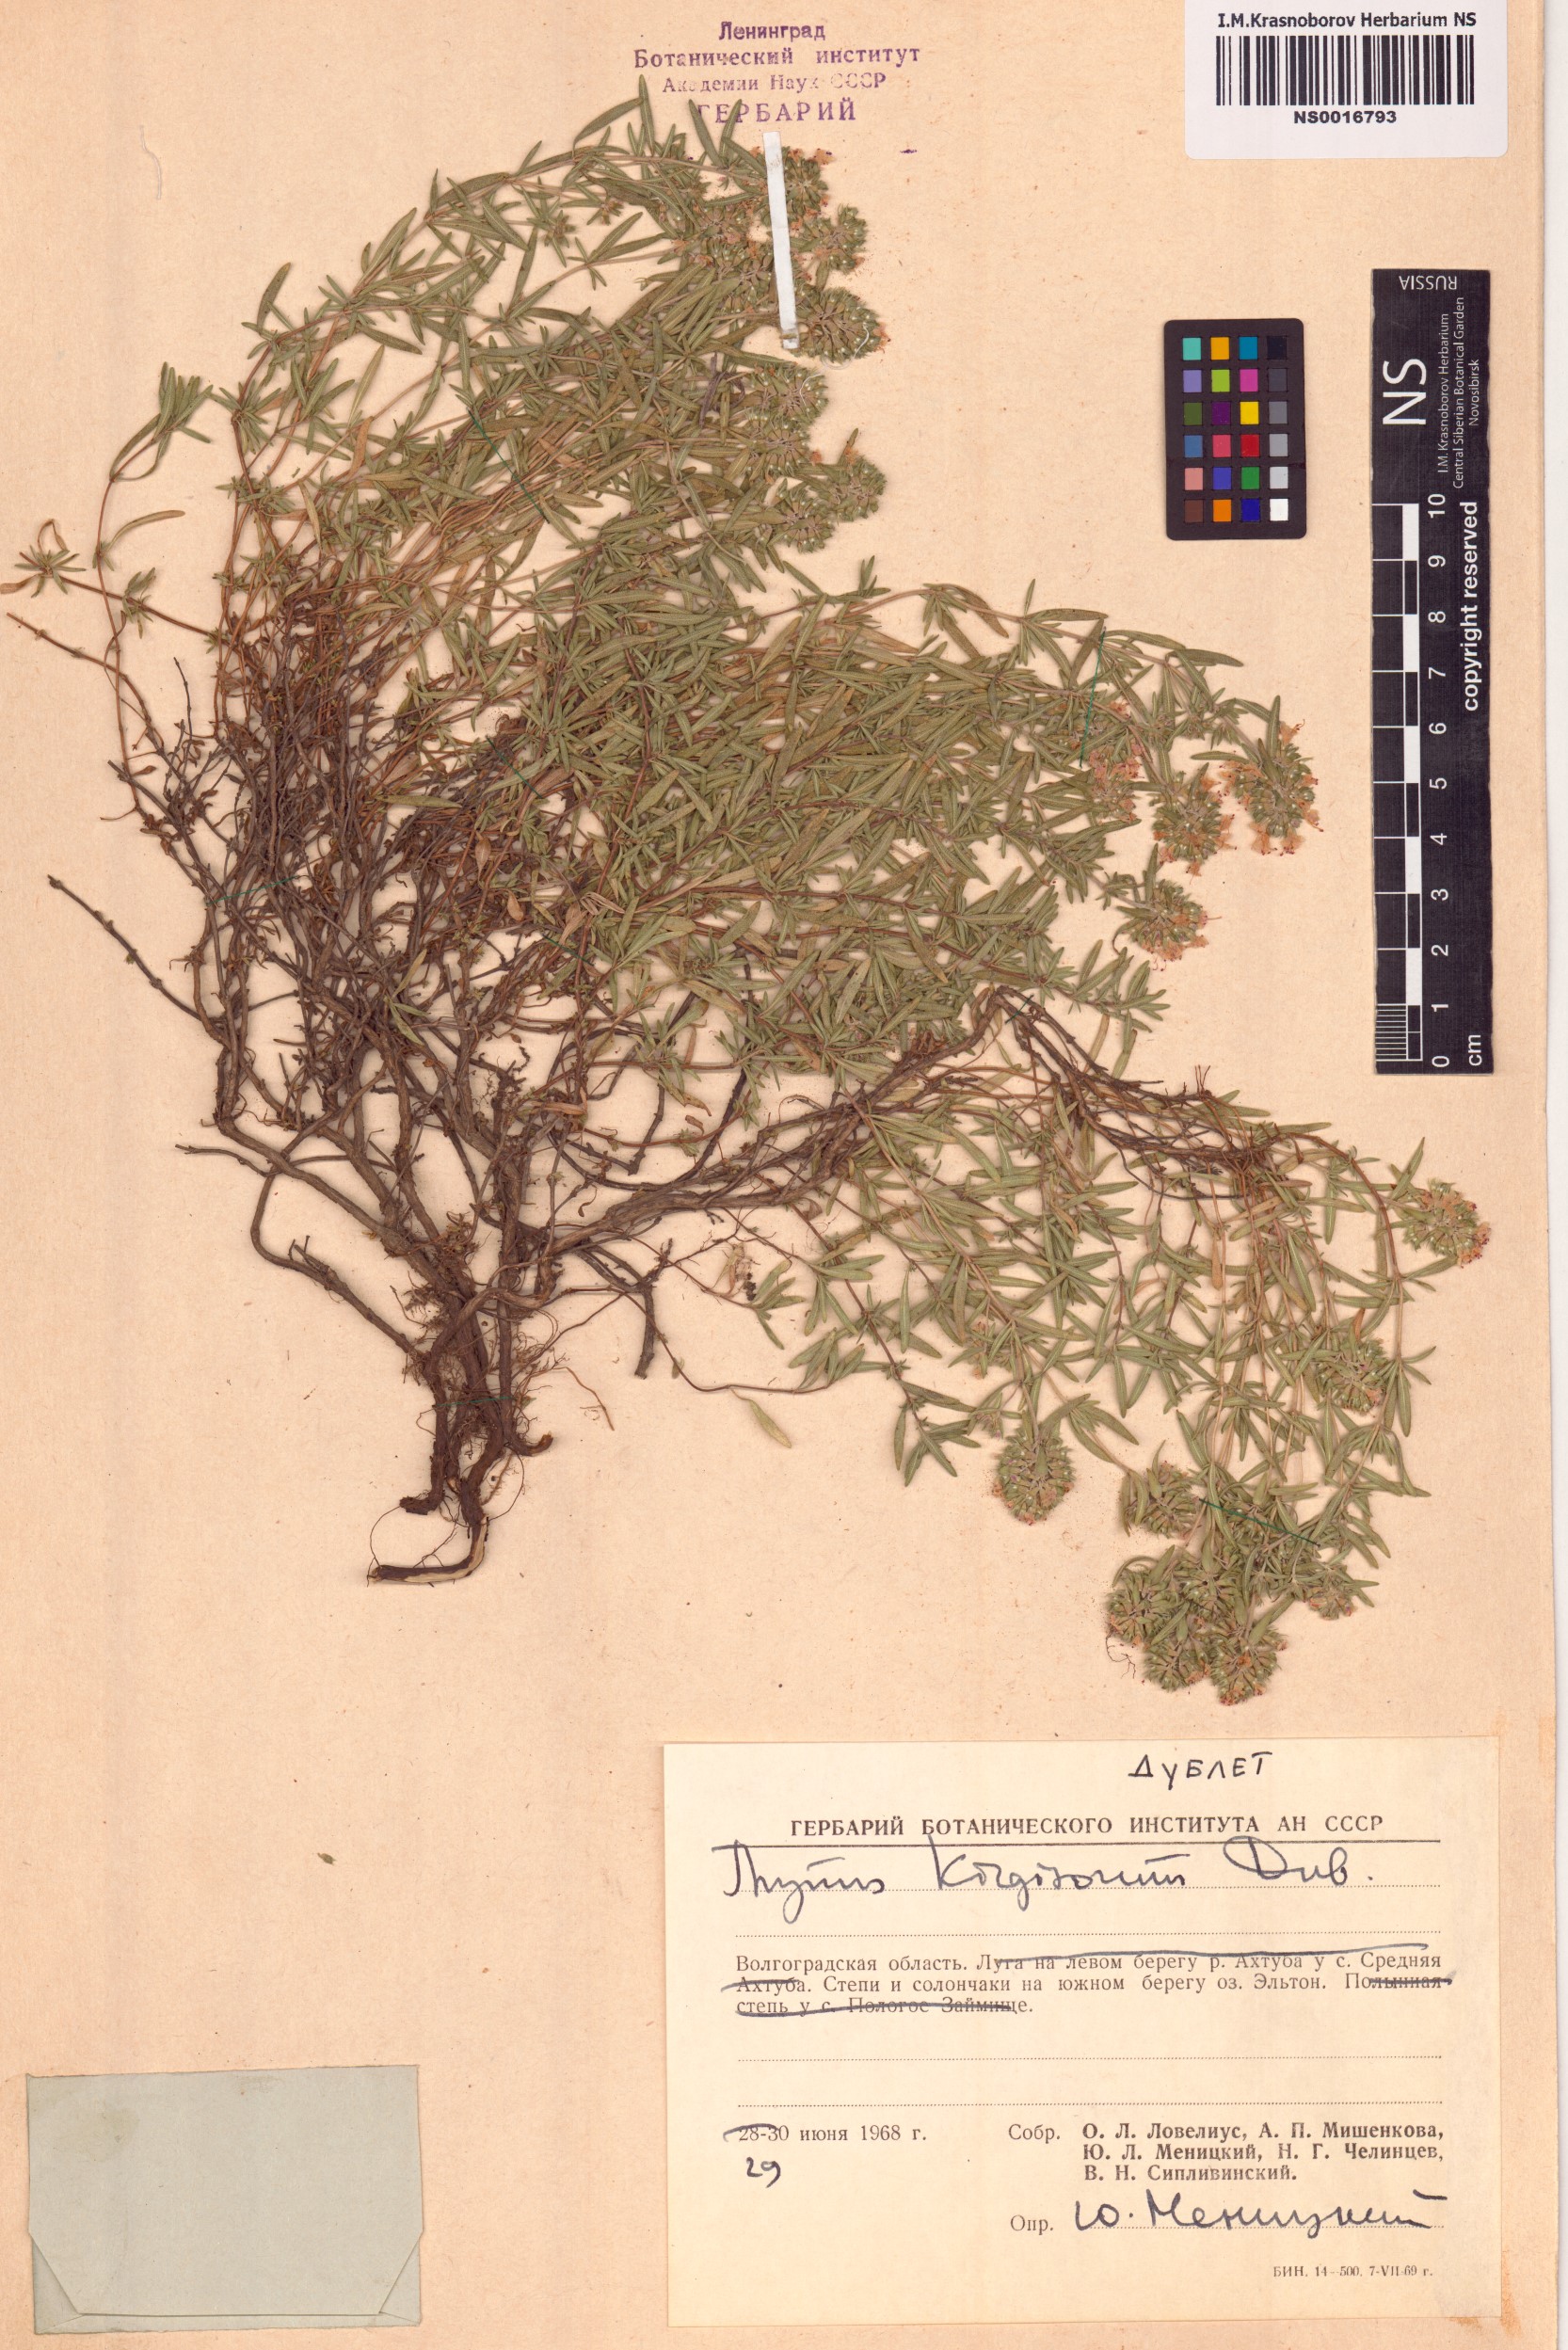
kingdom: Plantae
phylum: Tracheophyta
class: Magnoliopsida
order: Lamiales
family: Lamiaceae
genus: Thymus
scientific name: Thymus kirgisorum
